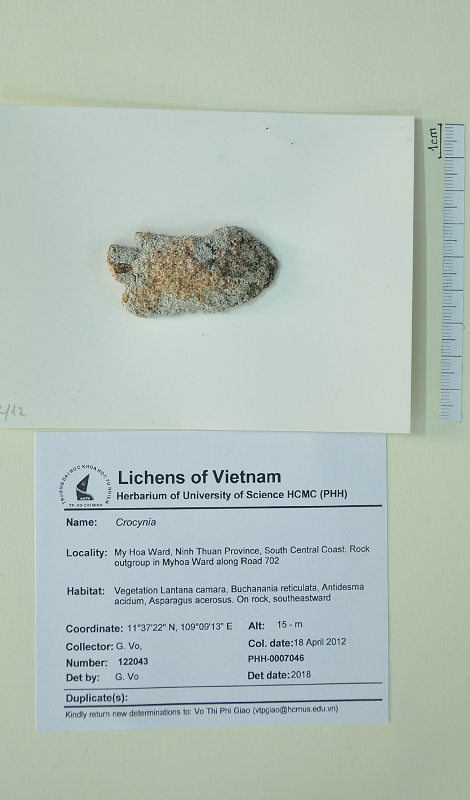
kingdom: Fungi
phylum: Ascomycota
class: Lecanoromycetes
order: Lecanorales
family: Ramalinaceae
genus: Crocynia
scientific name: Crocynia
